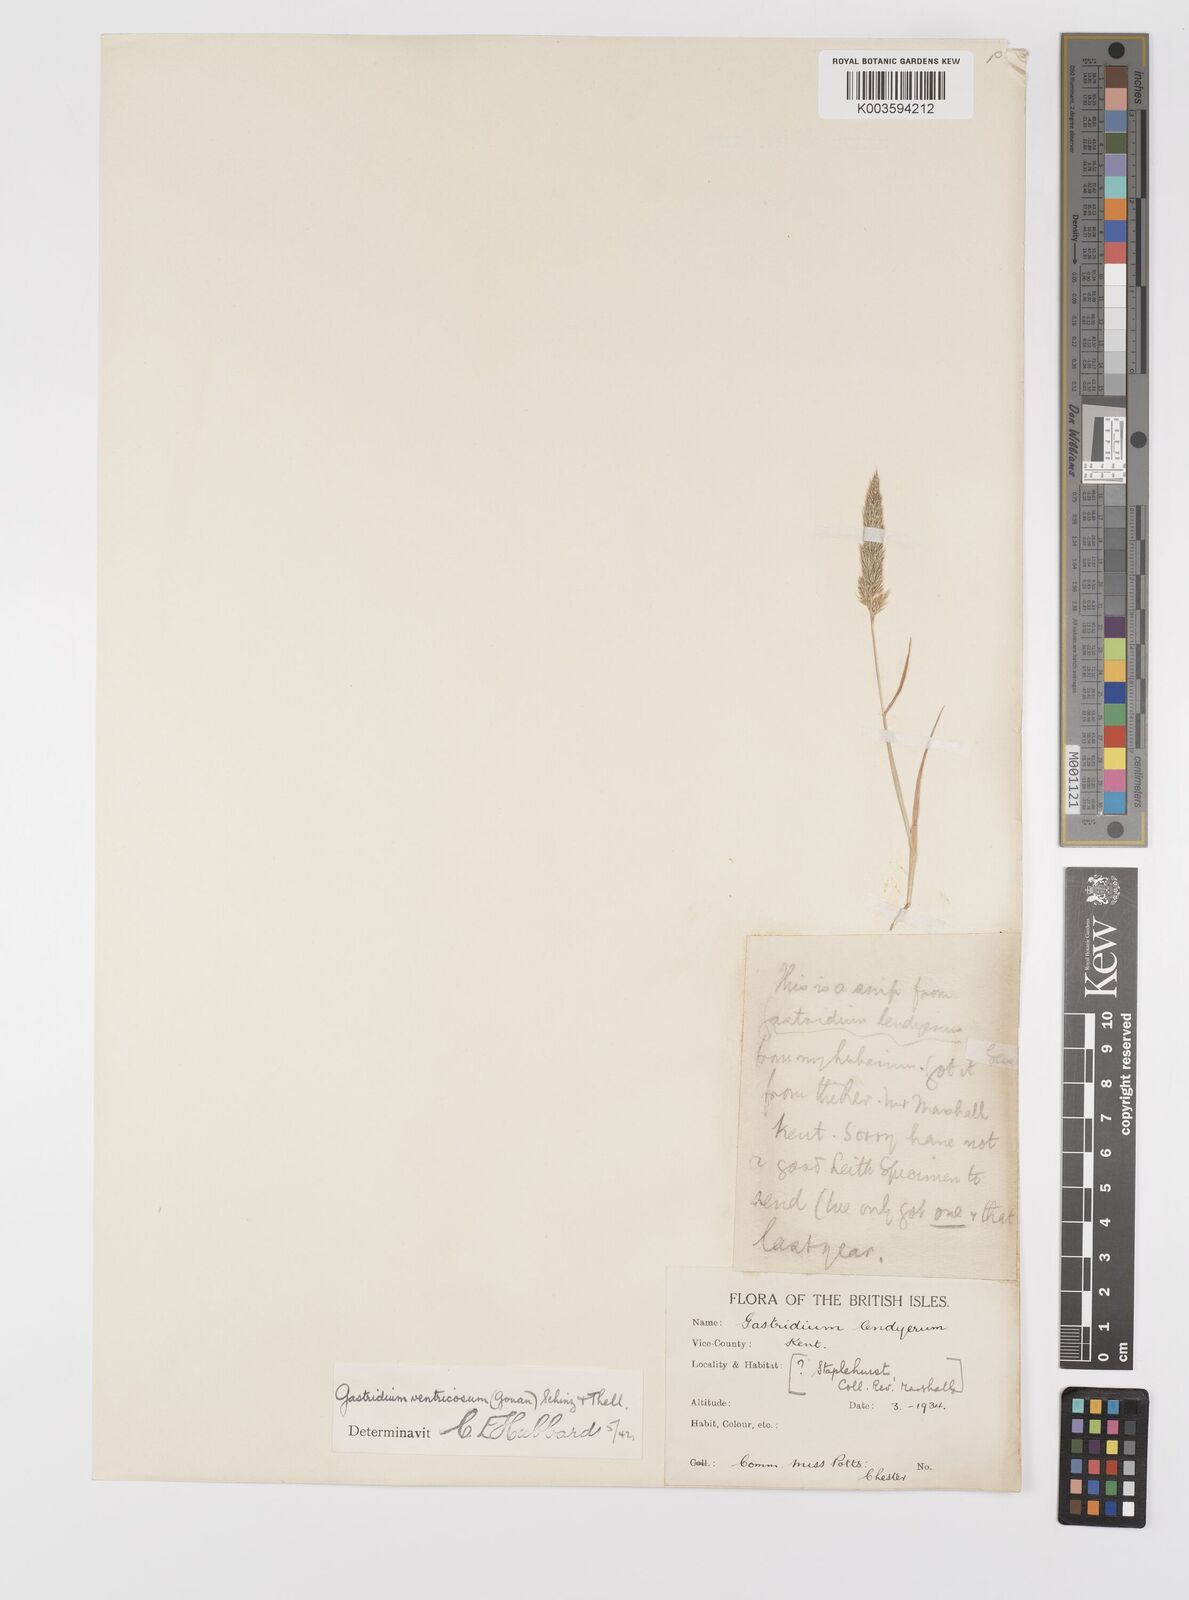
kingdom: Plantae
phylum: Tracheophyta
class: Liliopsida
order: Poales
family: Poaceae
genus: Gastridium
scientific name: Gastridium ventricosum
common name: Nit-grass
